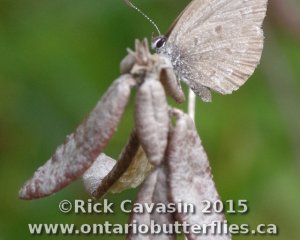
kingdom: Animalia
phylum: Arthropoda
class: Insecta
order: Lepidoptera
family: Lycaenidae
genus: Celastrina
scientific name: Celastrina lucia
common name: Northern Spring Azure
